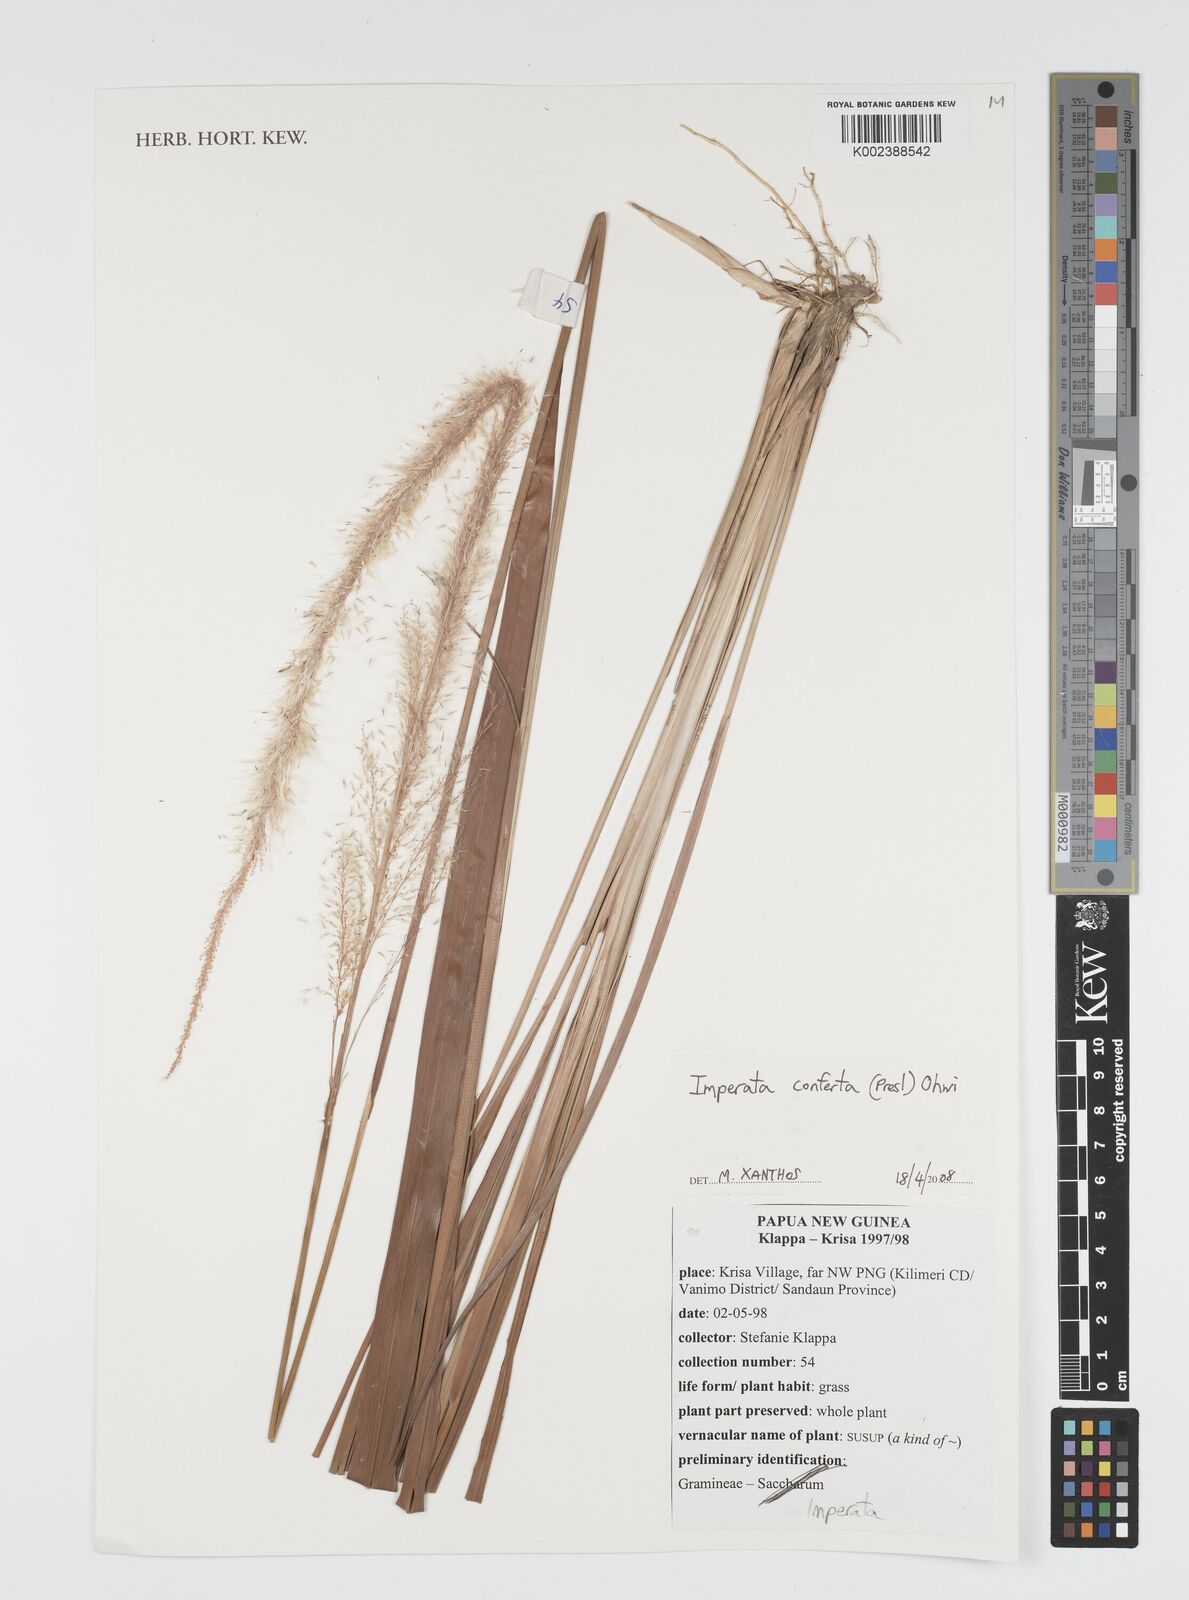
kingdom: Plantae
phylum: Tracheophyta
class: Liliopsida
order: Poales
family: Poaceae
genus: Imperata
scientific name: Imperata conferta
